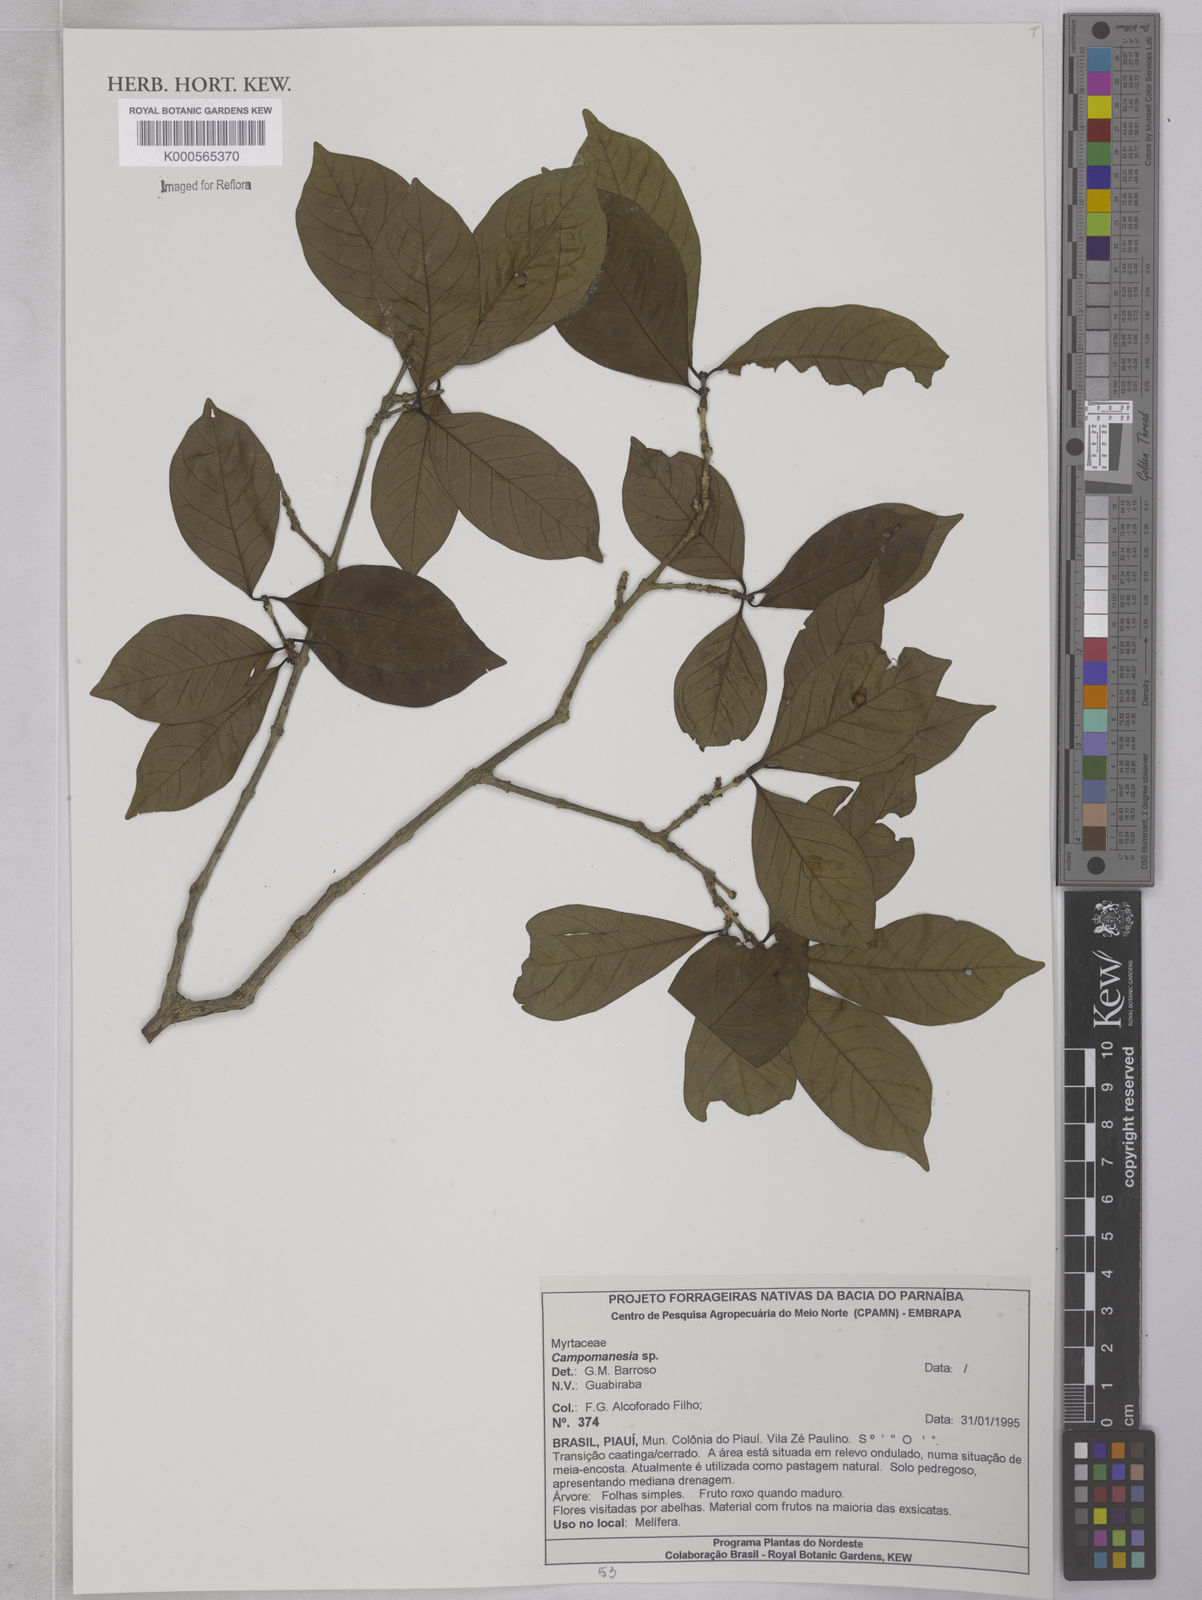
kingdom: Plantae
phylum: Tracheophyta
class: Magnoliopsida
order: Myrtales
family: Myrtaceae
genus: Campomanesia
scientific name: Campomanesia
